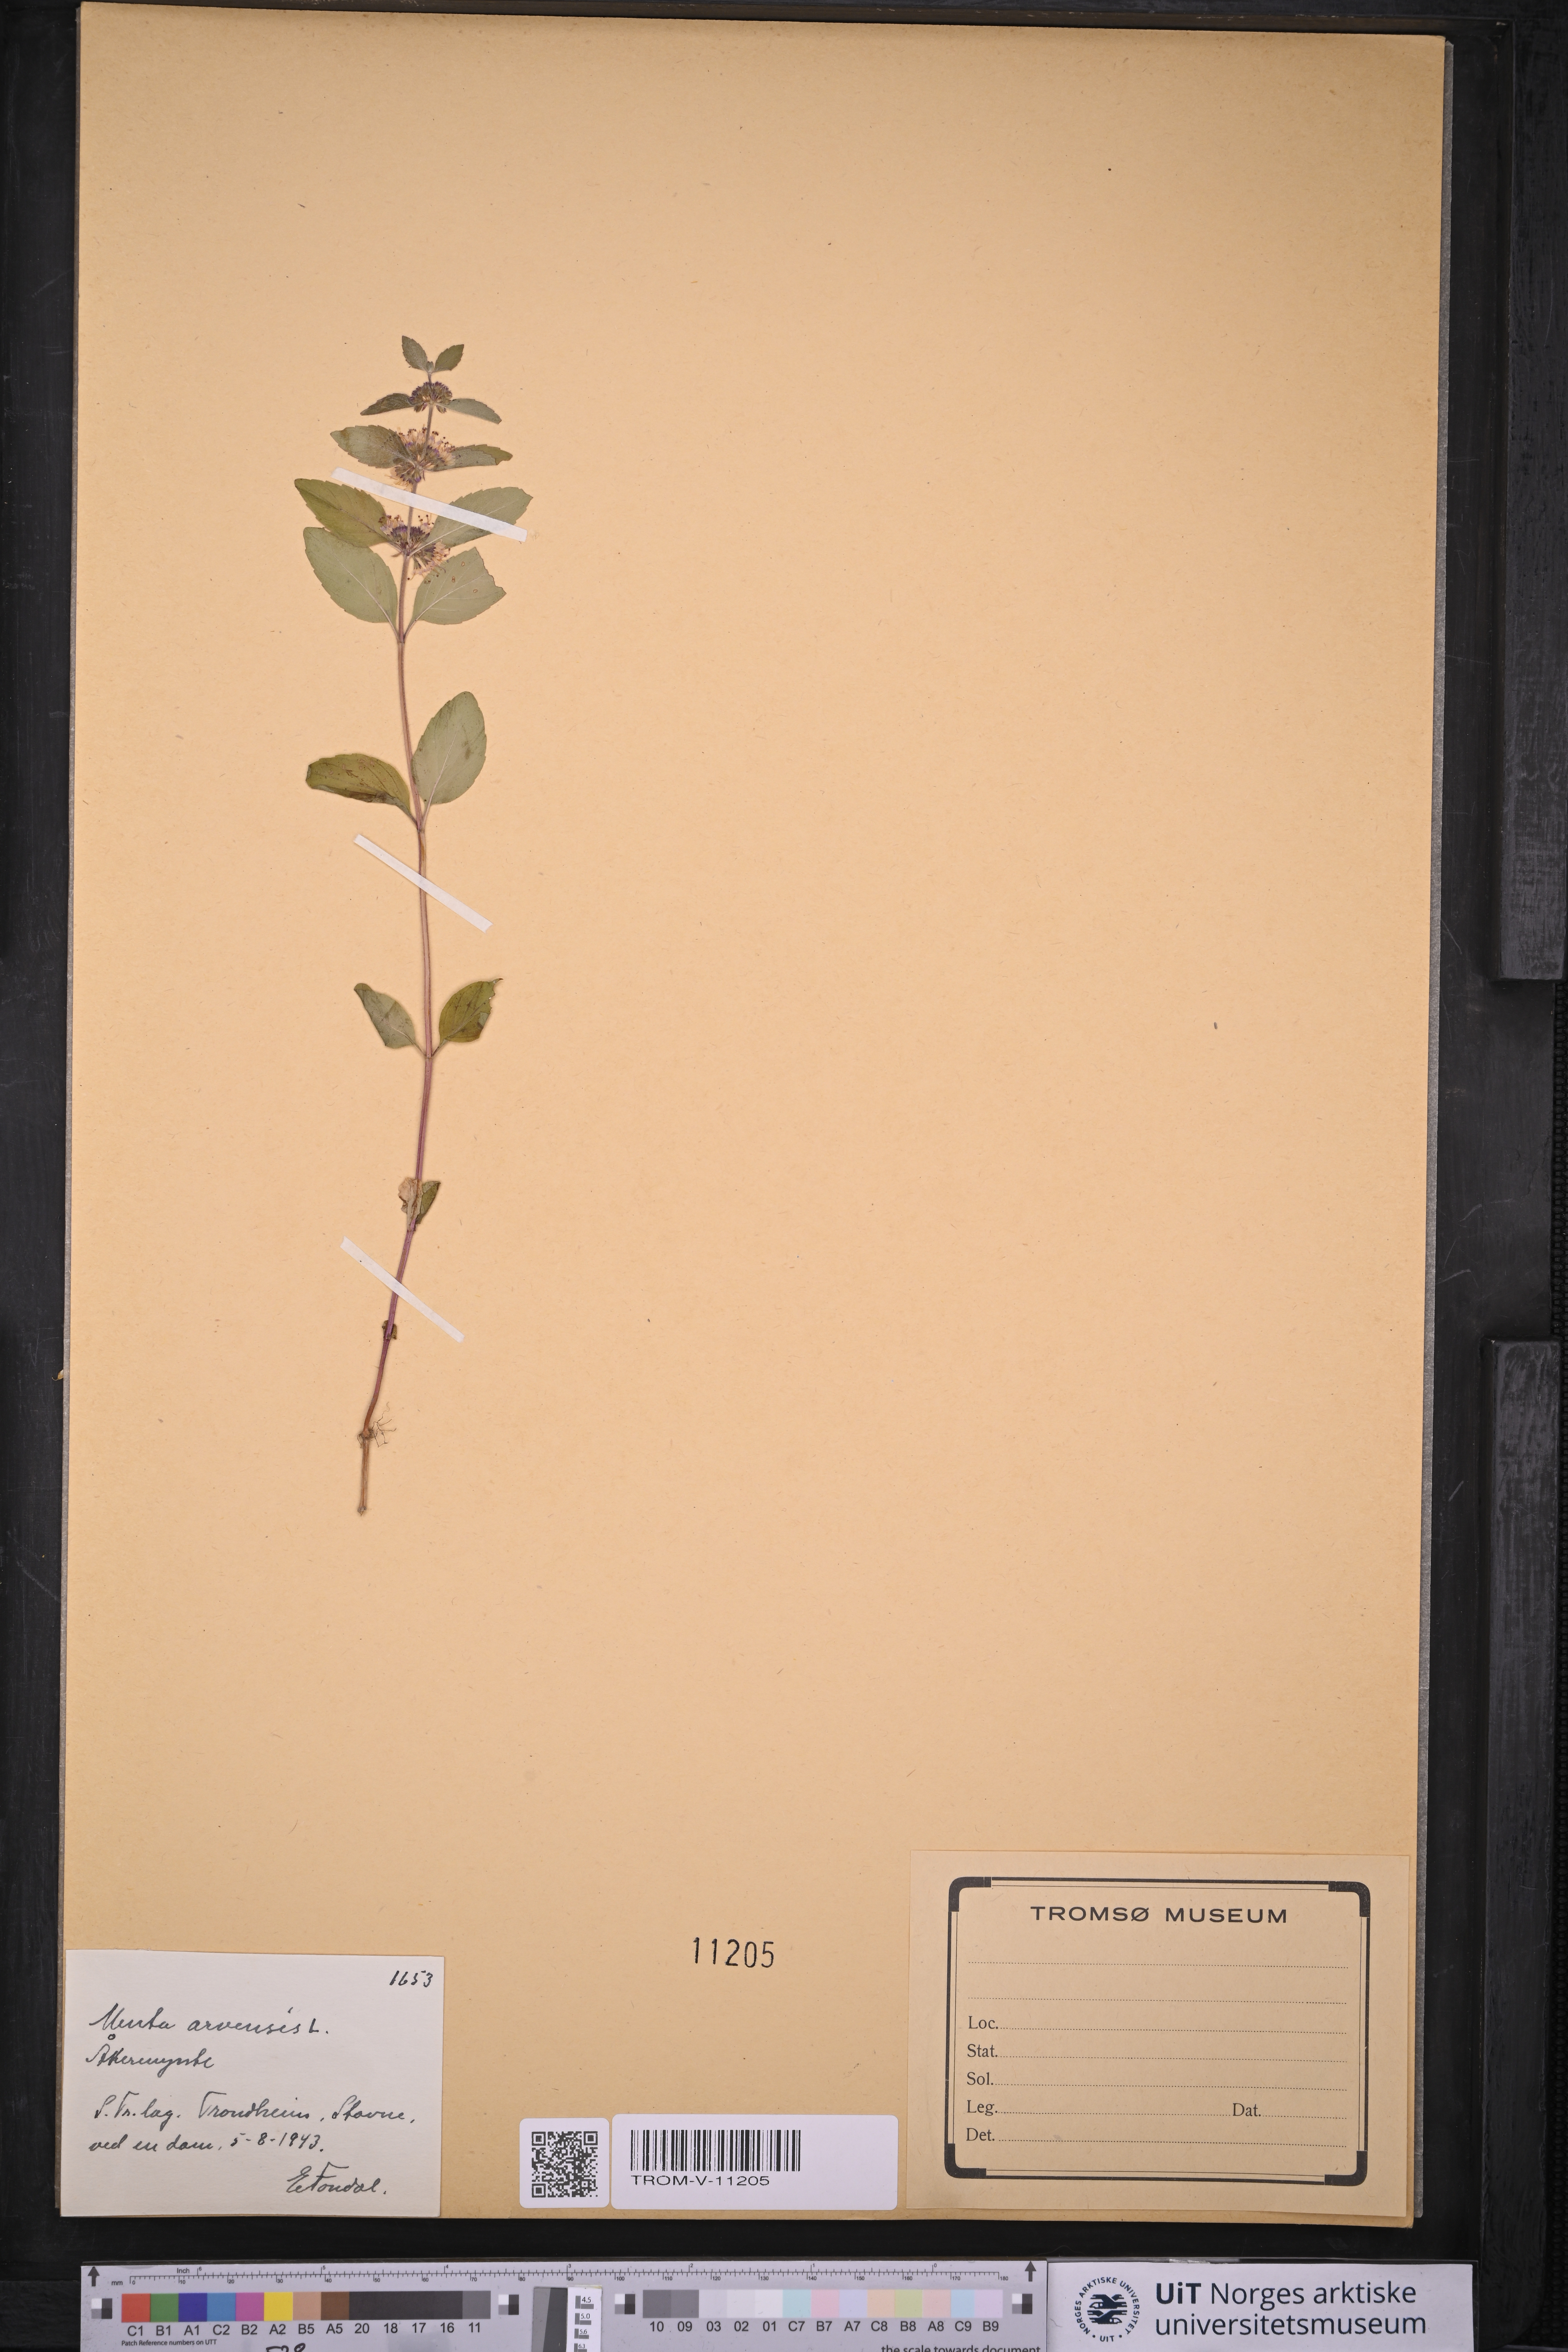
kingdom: Plantae
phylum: Tracheophyta
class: Magnoliopsida
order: Lamiales
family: Lamiaceae
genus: Mentha
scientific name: Mentha arvensis
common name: Corn mint
